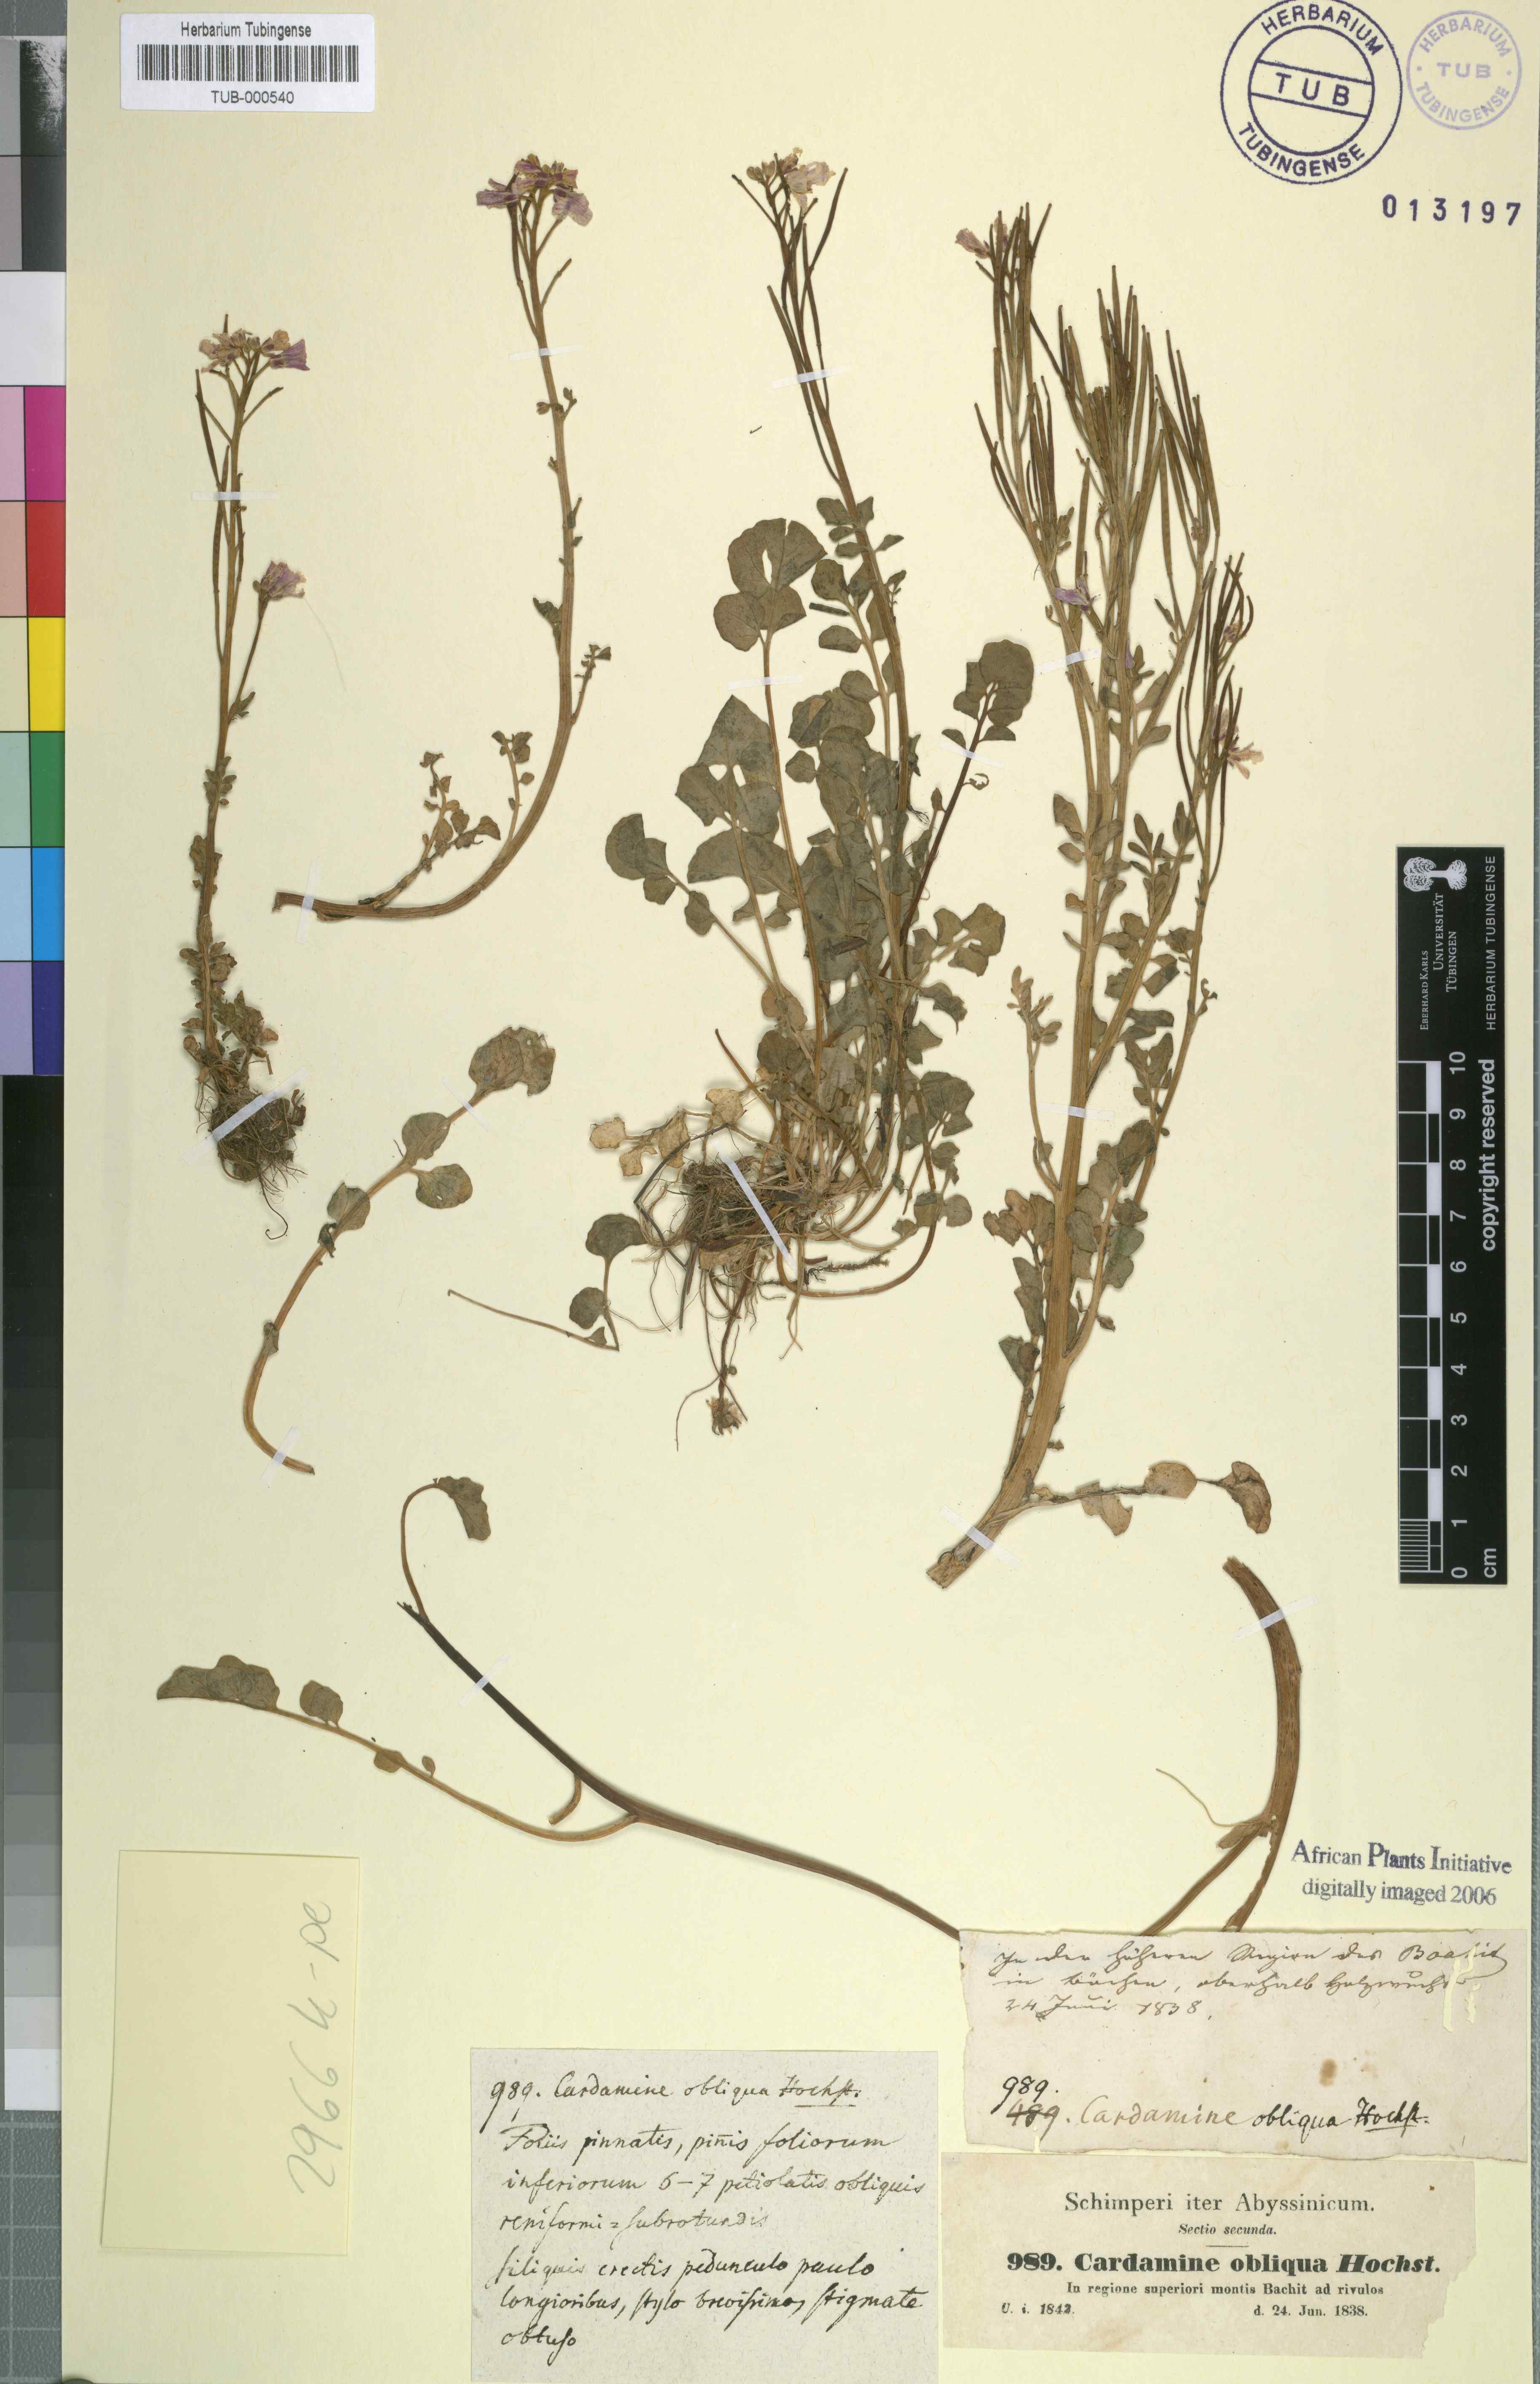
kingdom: Plantae
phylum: Tracheophyta
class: Magnoliopsida
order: Brassicales
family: Brassicaceae
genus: Cardamine
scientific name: Cardamine obliqua
